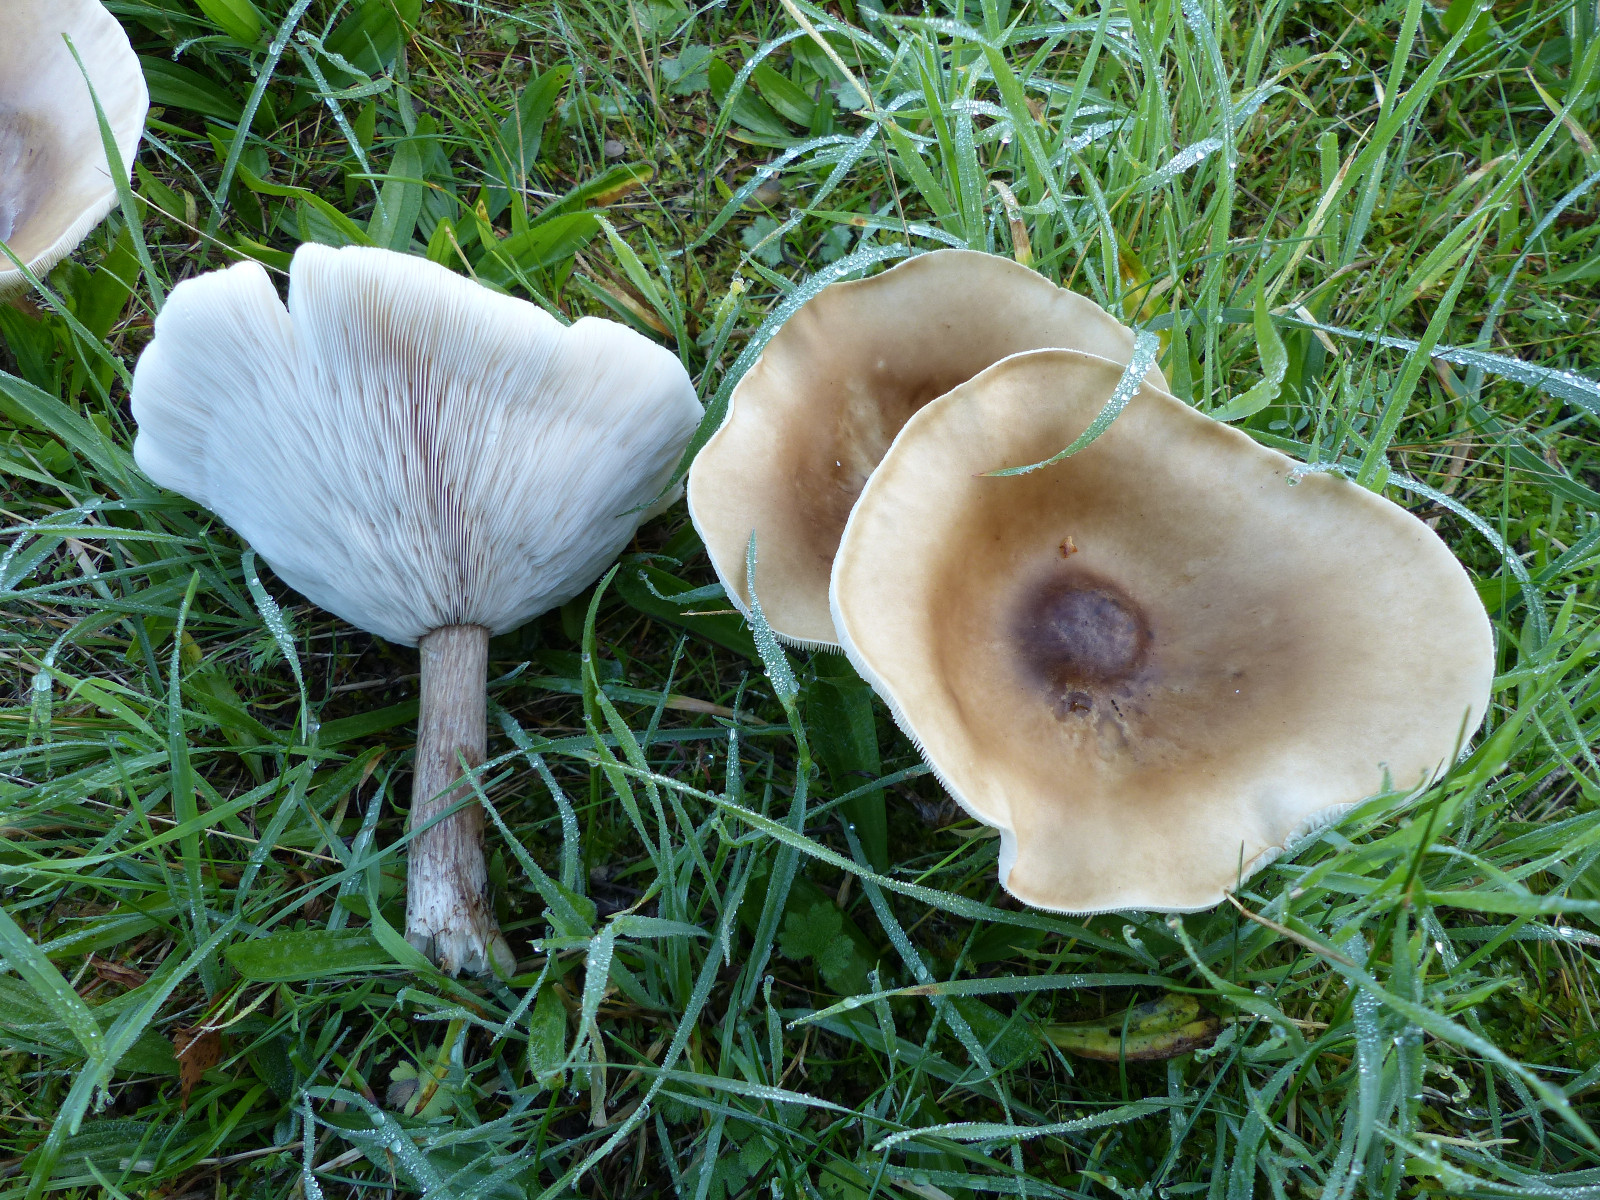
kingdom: Fungi
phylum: Basidiomycota
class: Agaricomycetes
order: Agaricales
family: Tricholomataceae
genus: Melanoleuca
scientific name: Melanoleuca grammopodia
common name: stribestokket munkehat
